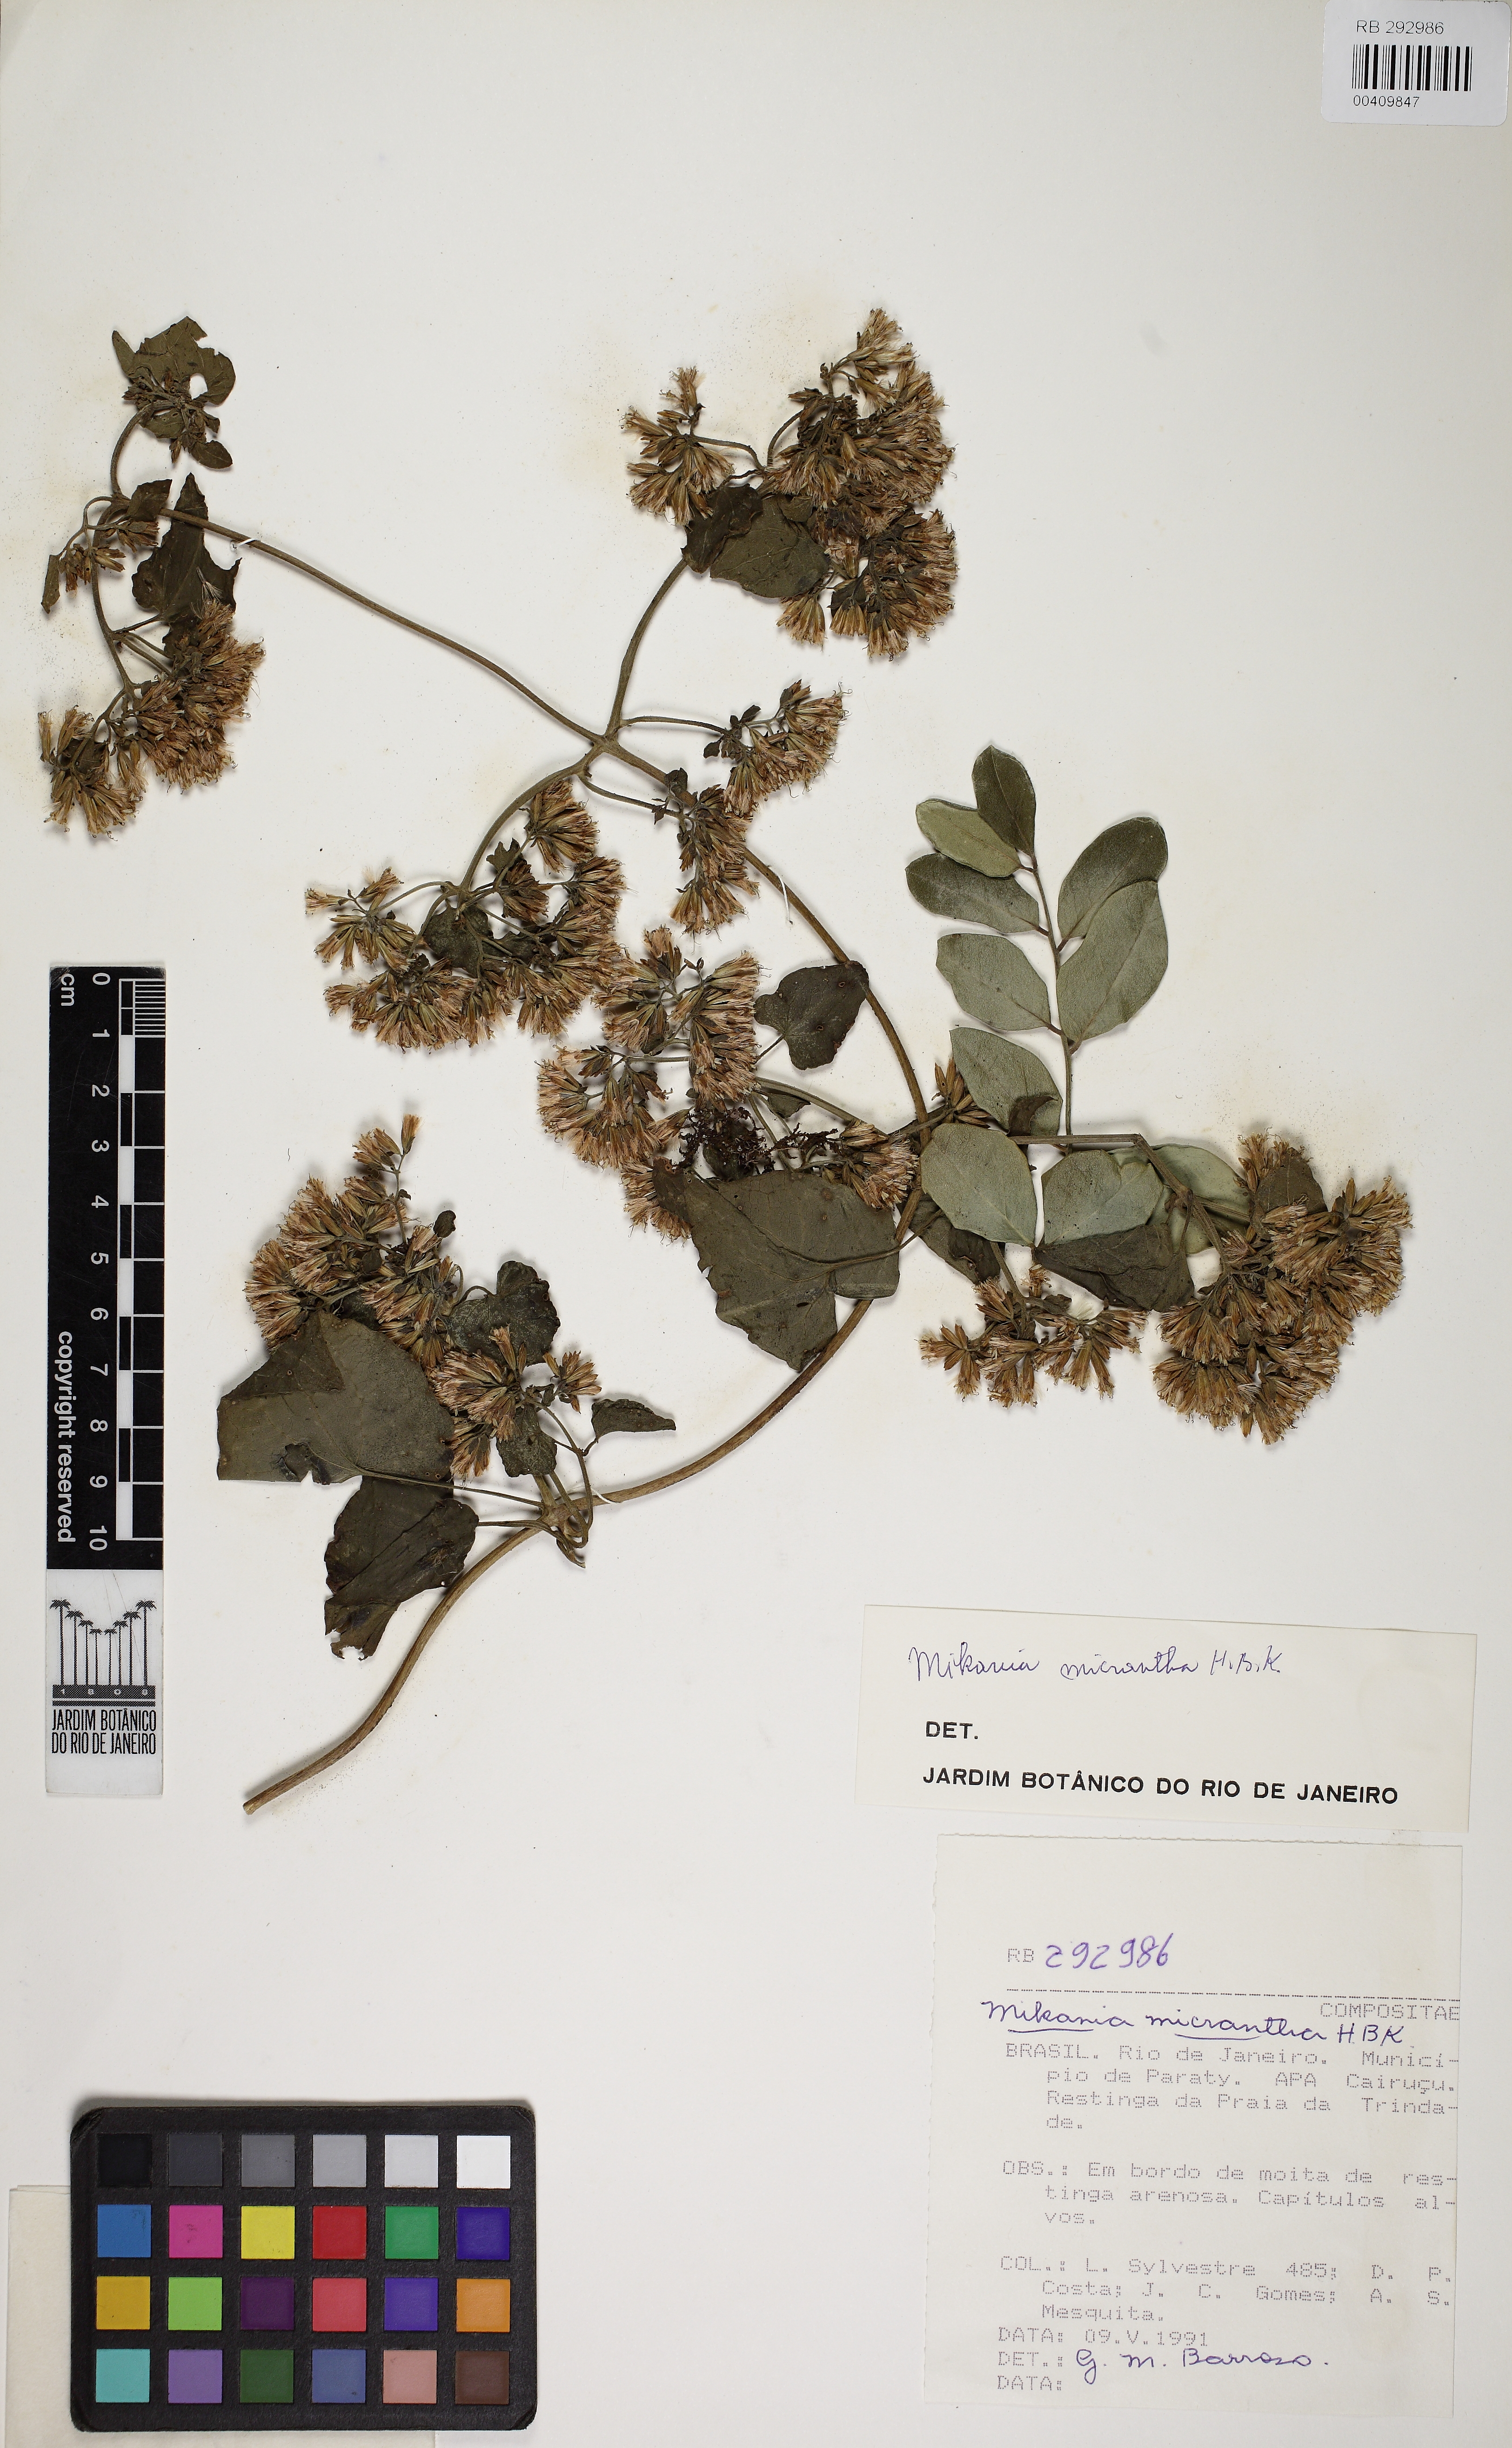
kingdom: Plantae
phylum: Tracheophyta
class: Magnoliopsida
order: Asterales
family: Asteraceae
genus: Mikania
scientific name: Mikania micrantha
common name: Mile-a-minute
